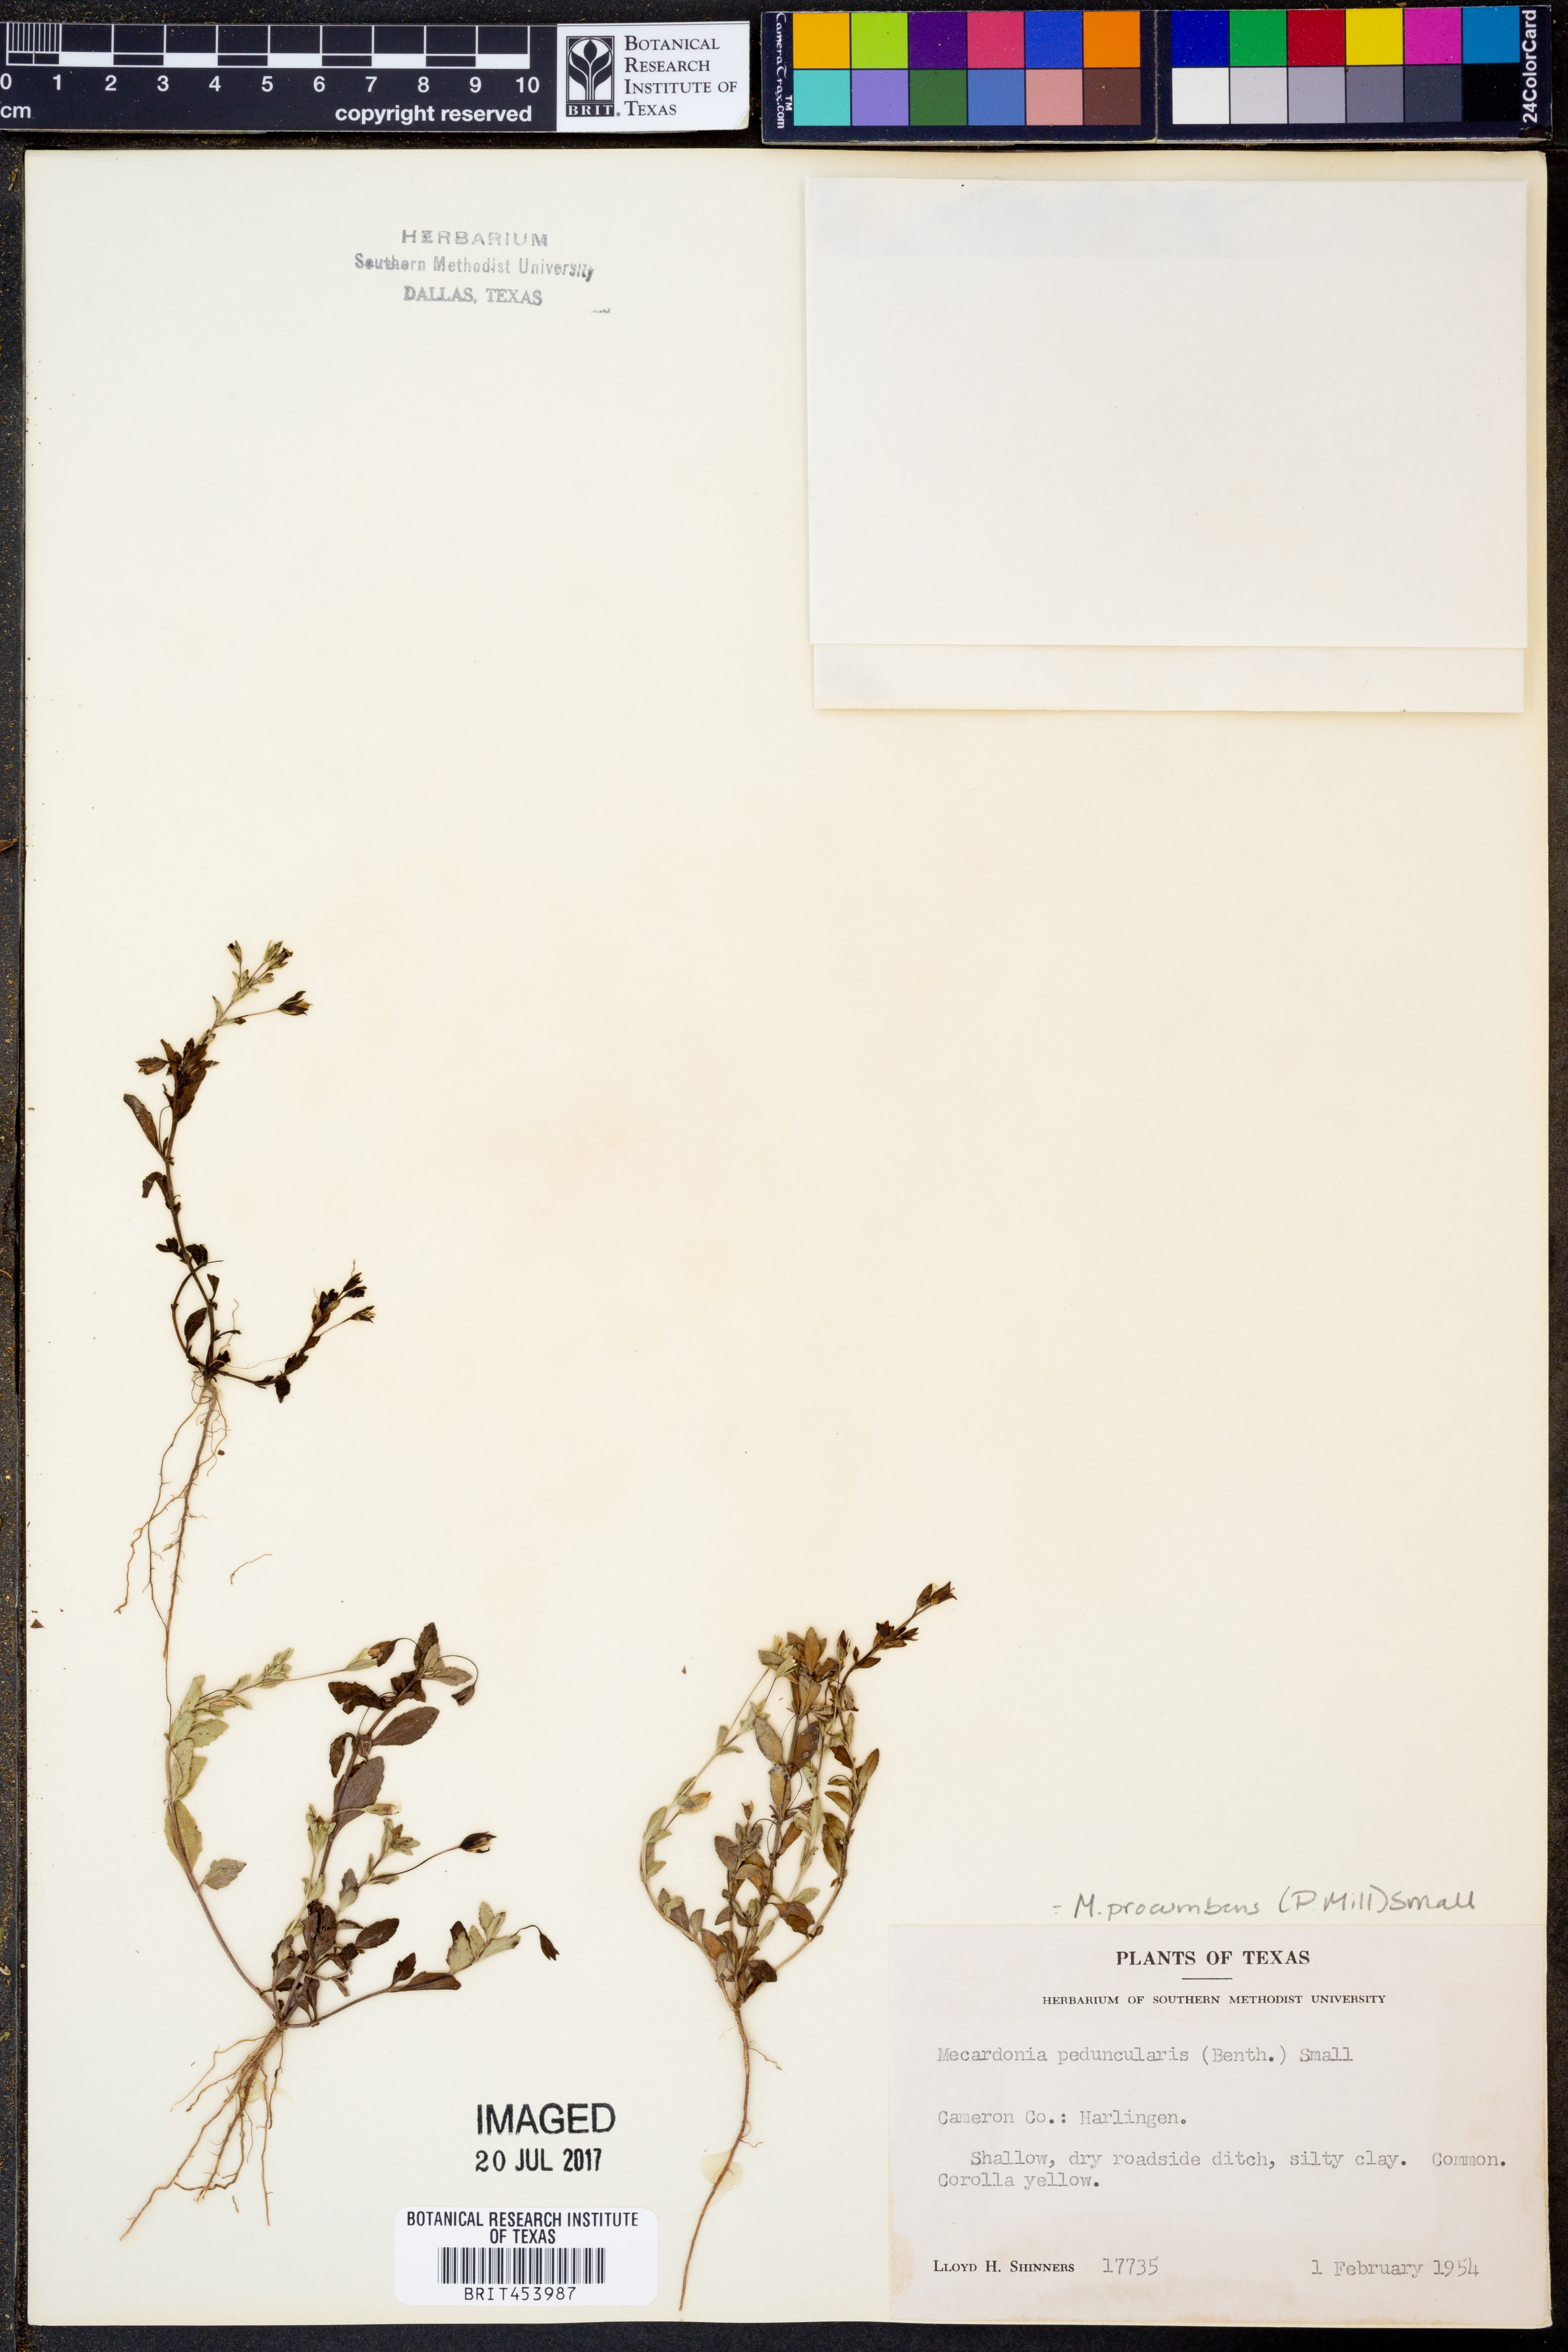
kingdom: Plantae
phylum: Tracheophyta
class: Magnoliopsida
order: Lamiales
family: Plantaginaceae
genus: Mecardonia
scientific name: Mecardonia procumbens
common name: Baby jump-up
